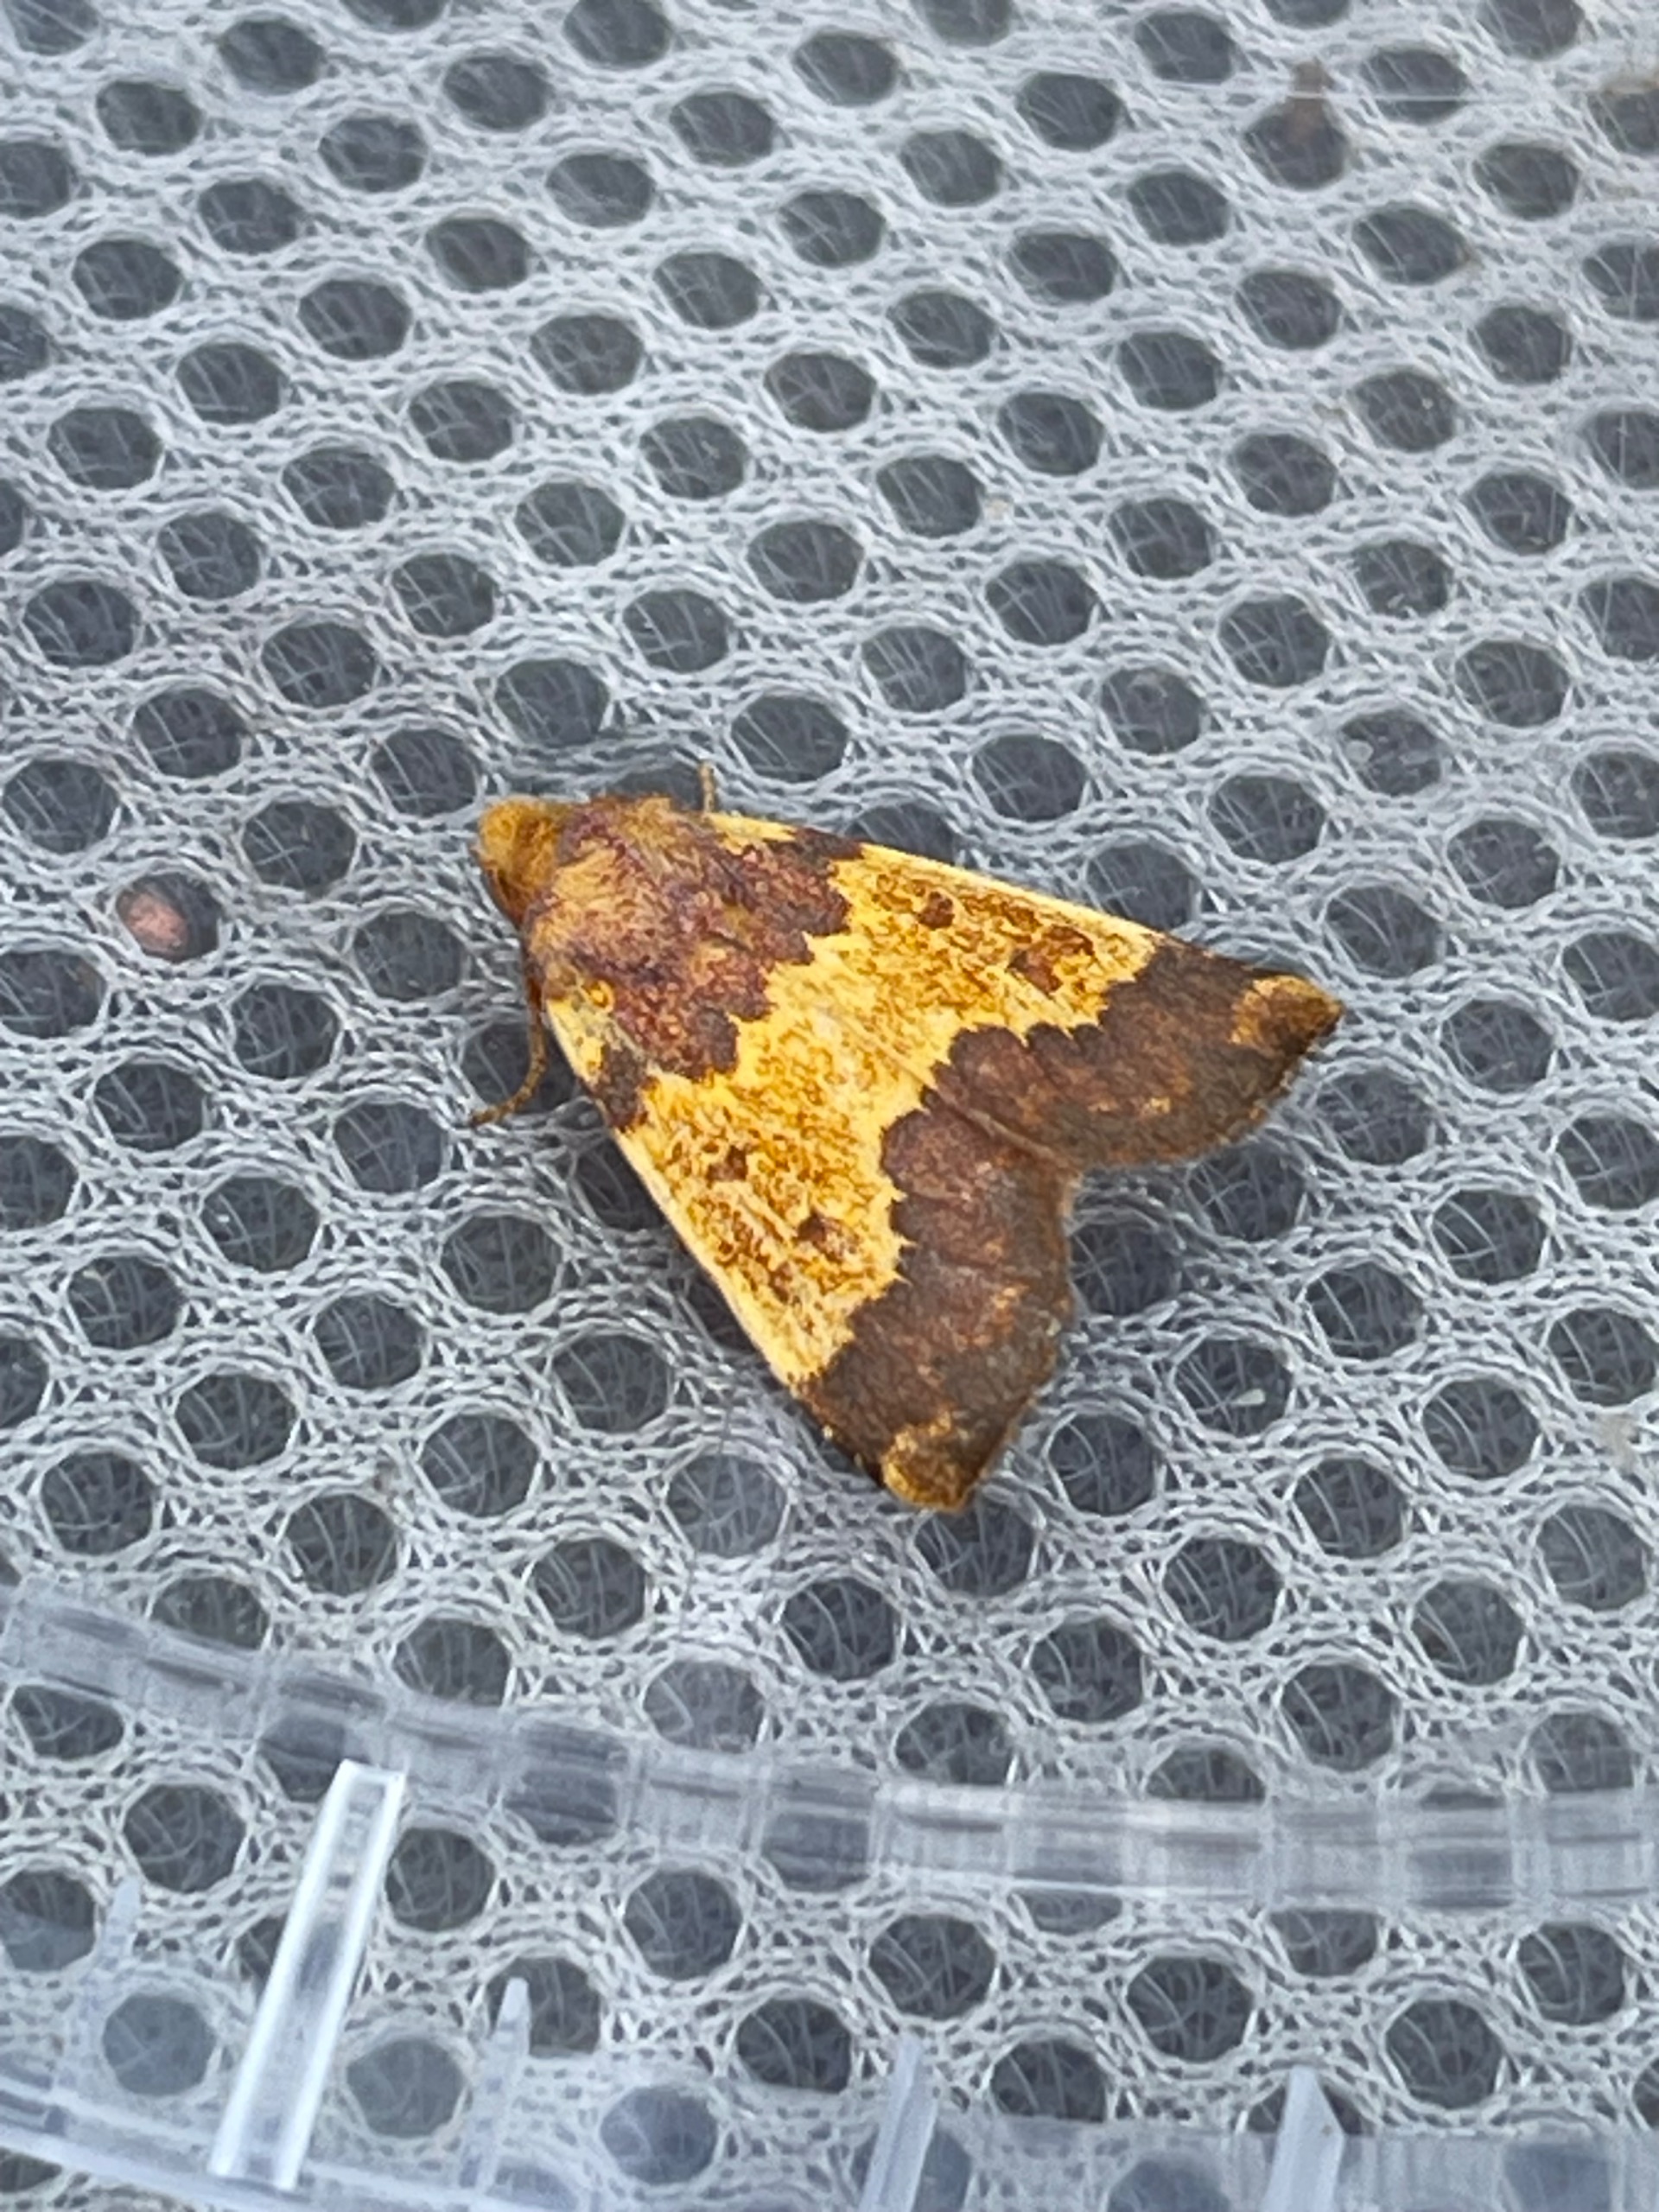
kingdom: Animalia
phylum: Arthropoda
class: Insecta
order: Lepidoptera
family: Noctuidae
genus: Tiliacea
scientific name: Tiliacea aurago
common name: Guldugle
